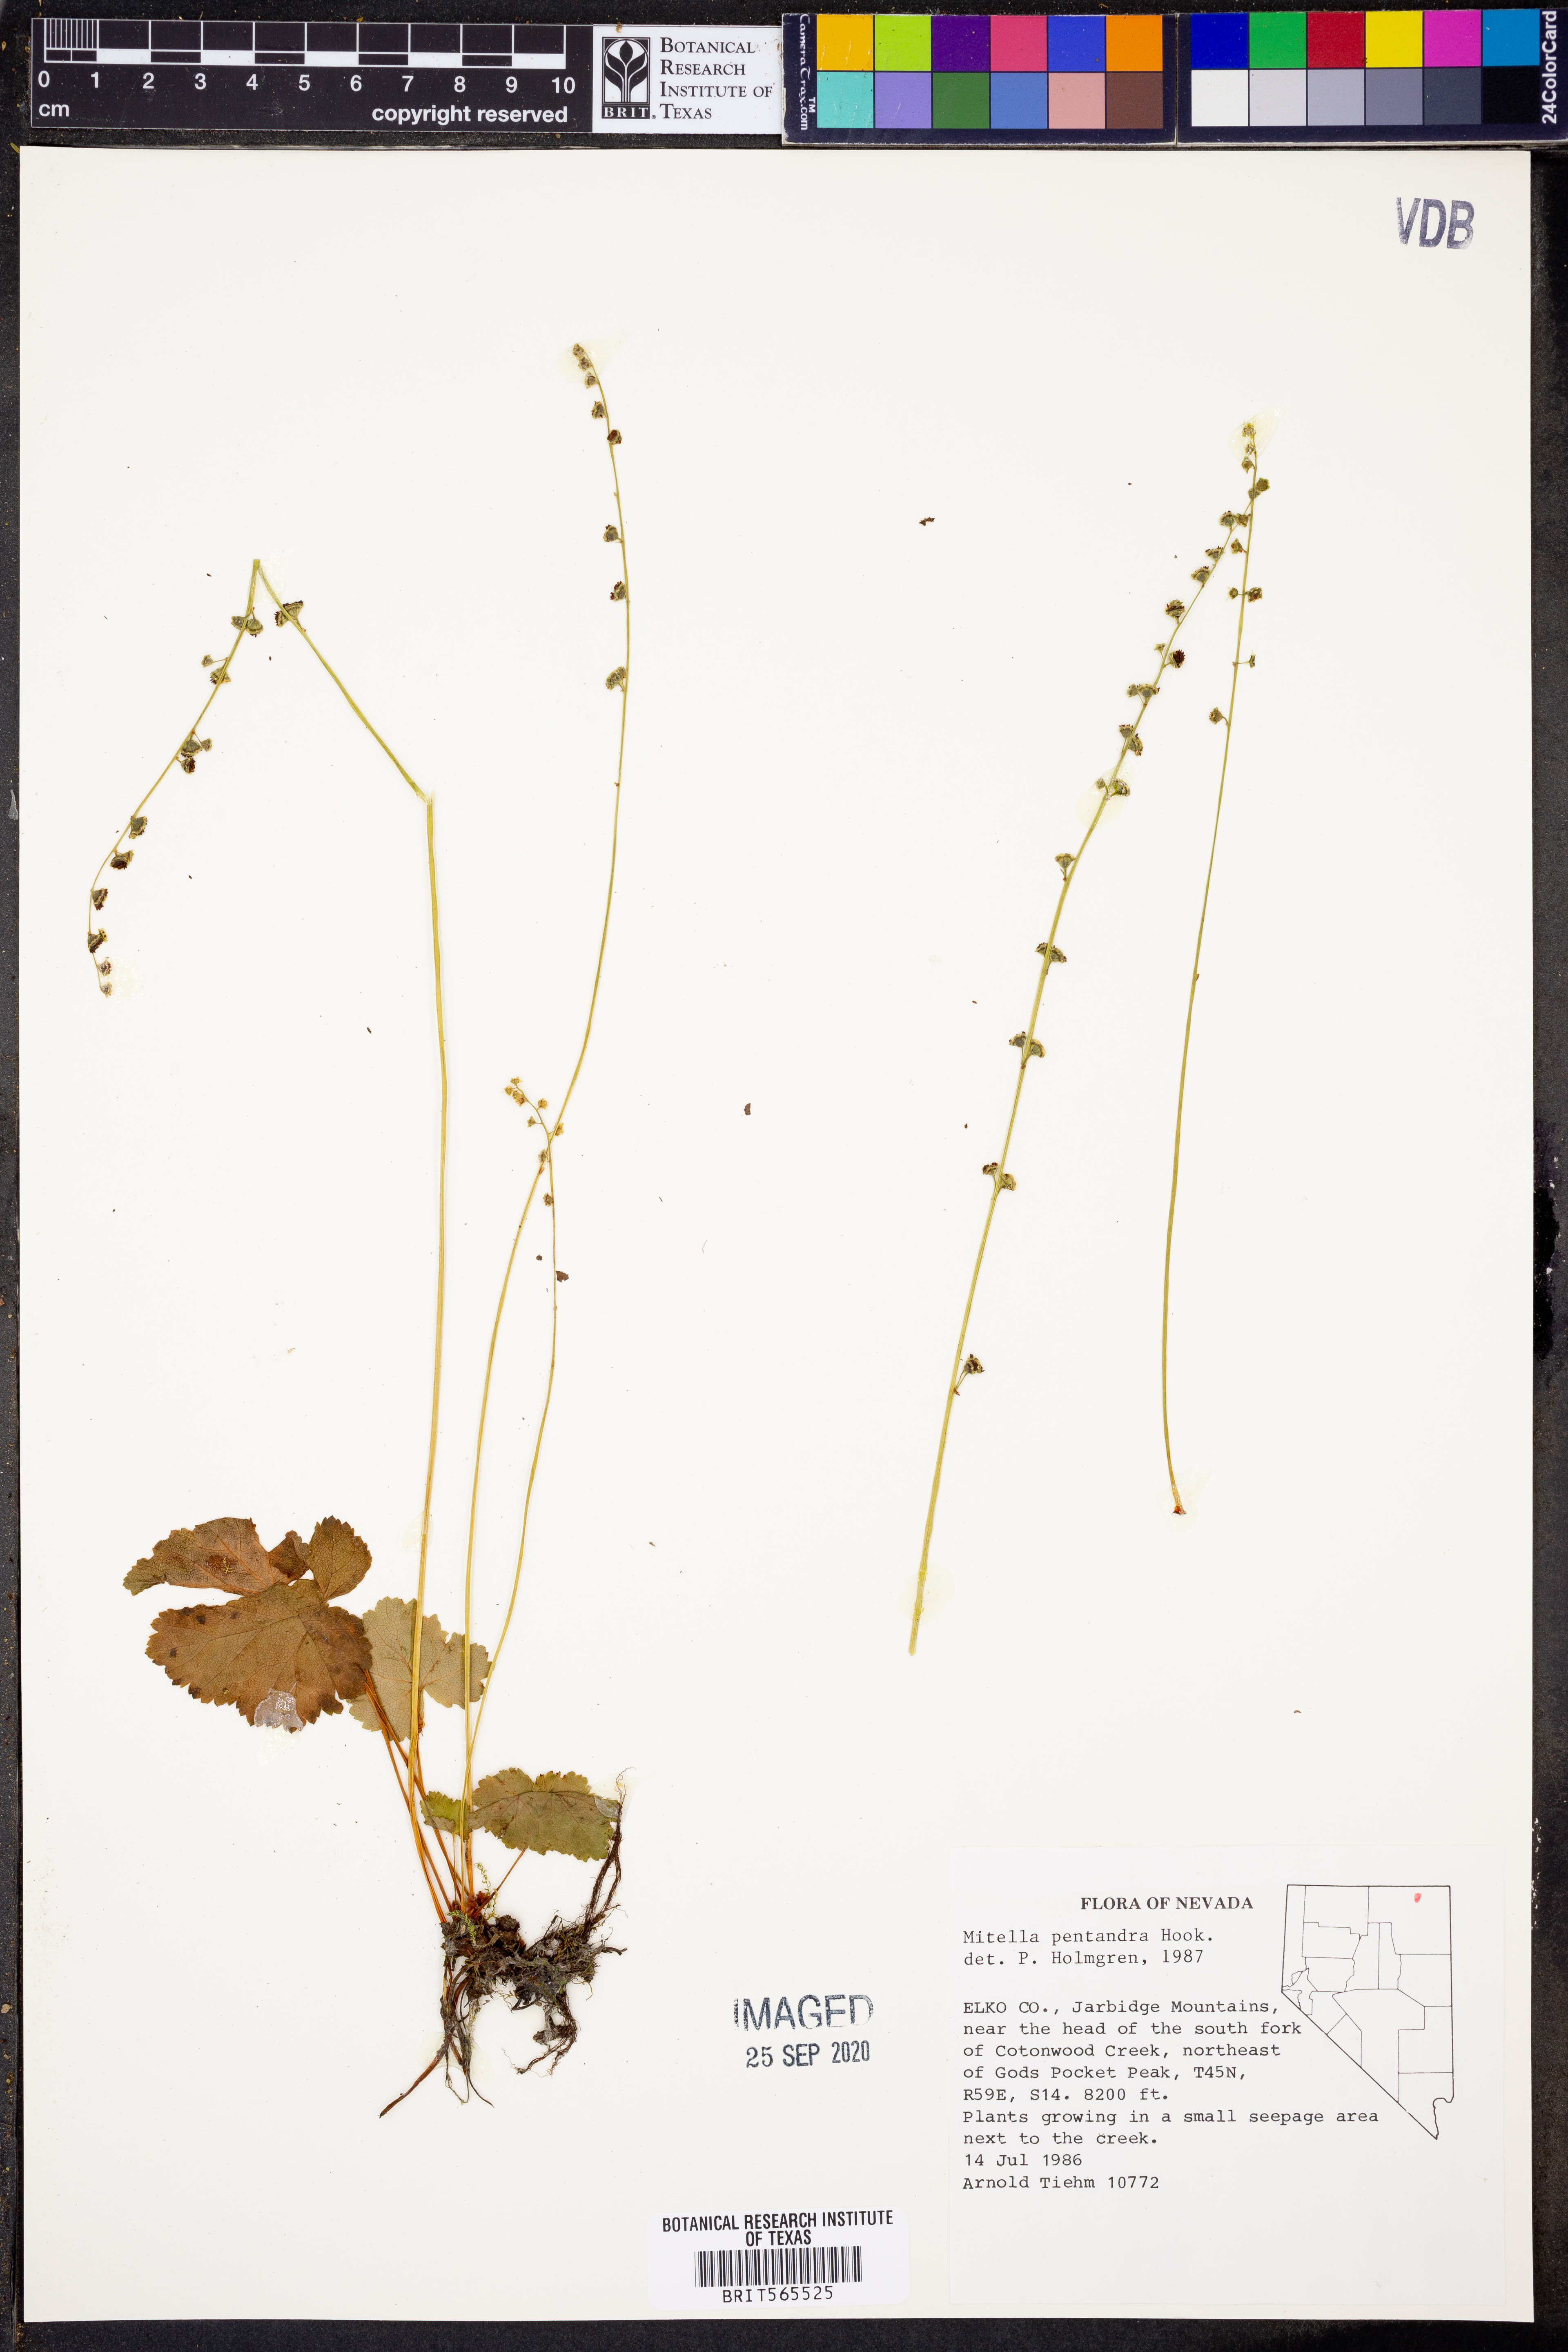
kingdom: Plantae
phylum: Tracheophyta
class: Magnoliopsida
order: Saxifragales
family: Saxifragaceae
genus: Pectiantia
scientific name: Pectiantia pentandra
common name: Alpine bishop's-cap
